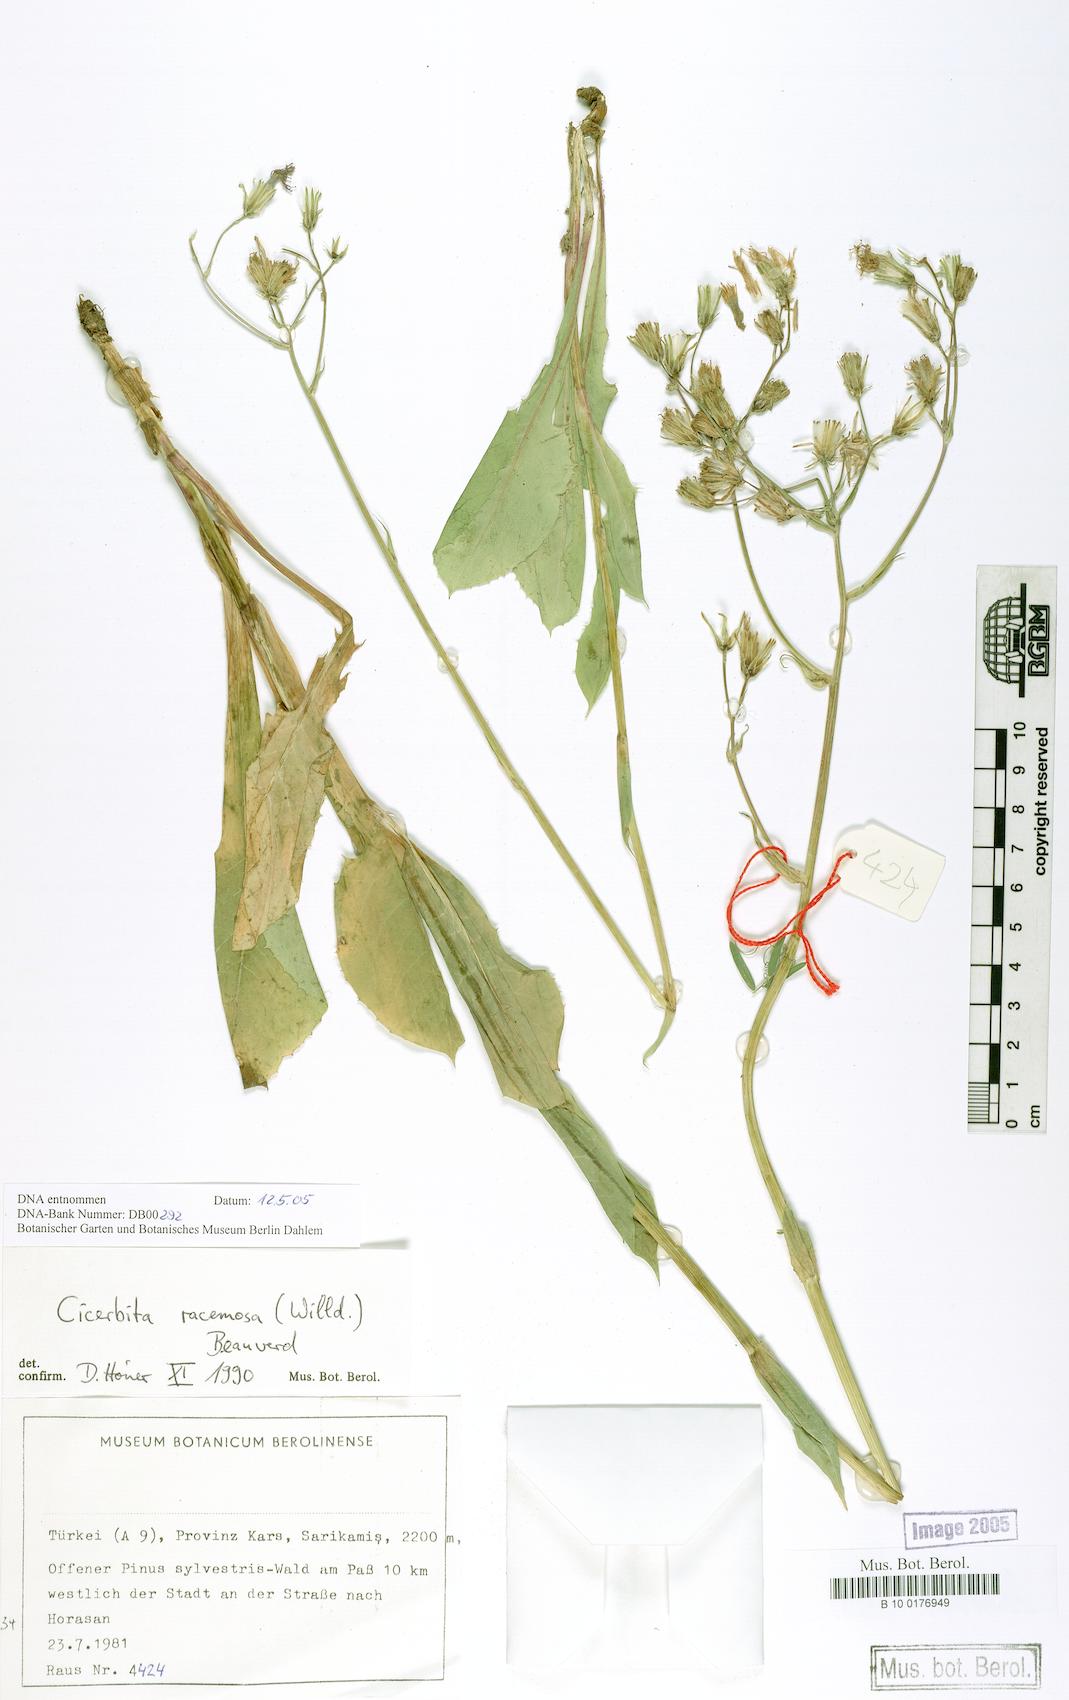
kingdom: Plantae
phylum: Tracheophyta
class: Magnoliopsida
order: Asterales
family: Asteraceae
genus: Lactuca
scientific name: Lactuca racemosa
